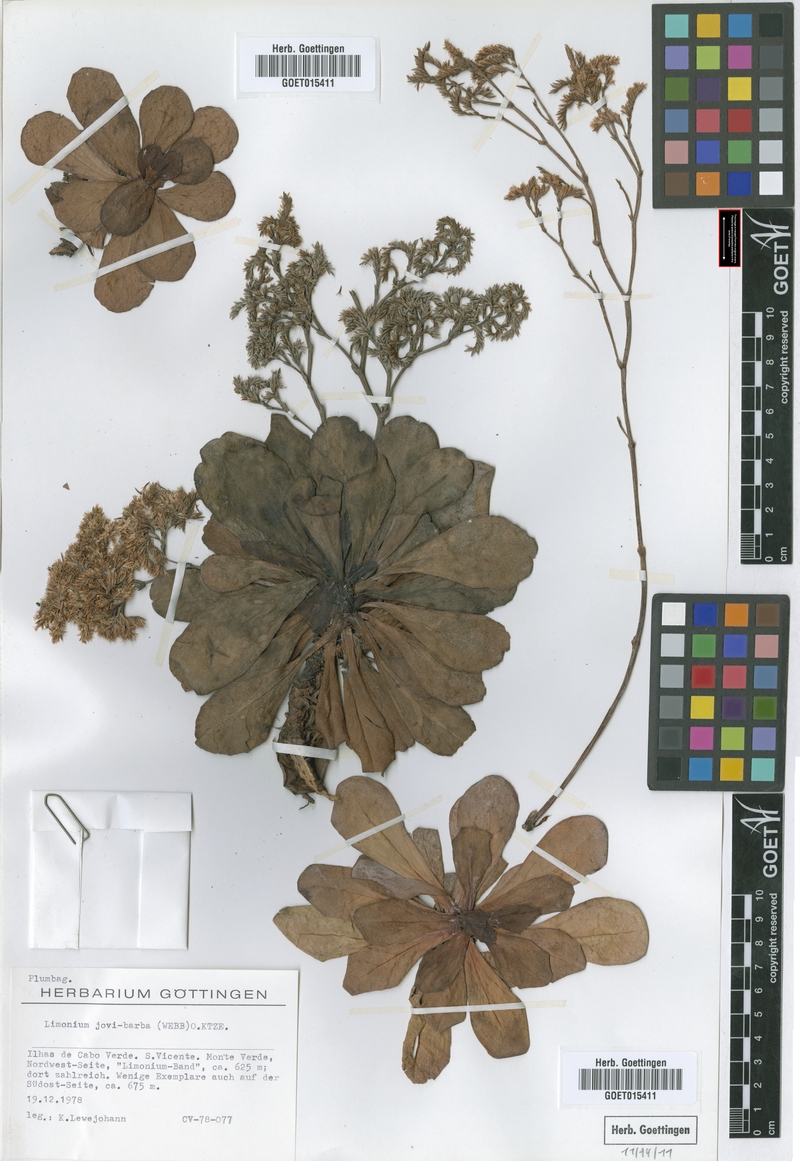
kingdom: Plantae
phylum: Tracheophyta
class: Magnoliopsida
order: Caryophyllales
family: Plumbaginaceae
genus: Limonium
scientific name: Limonium jovibarba
